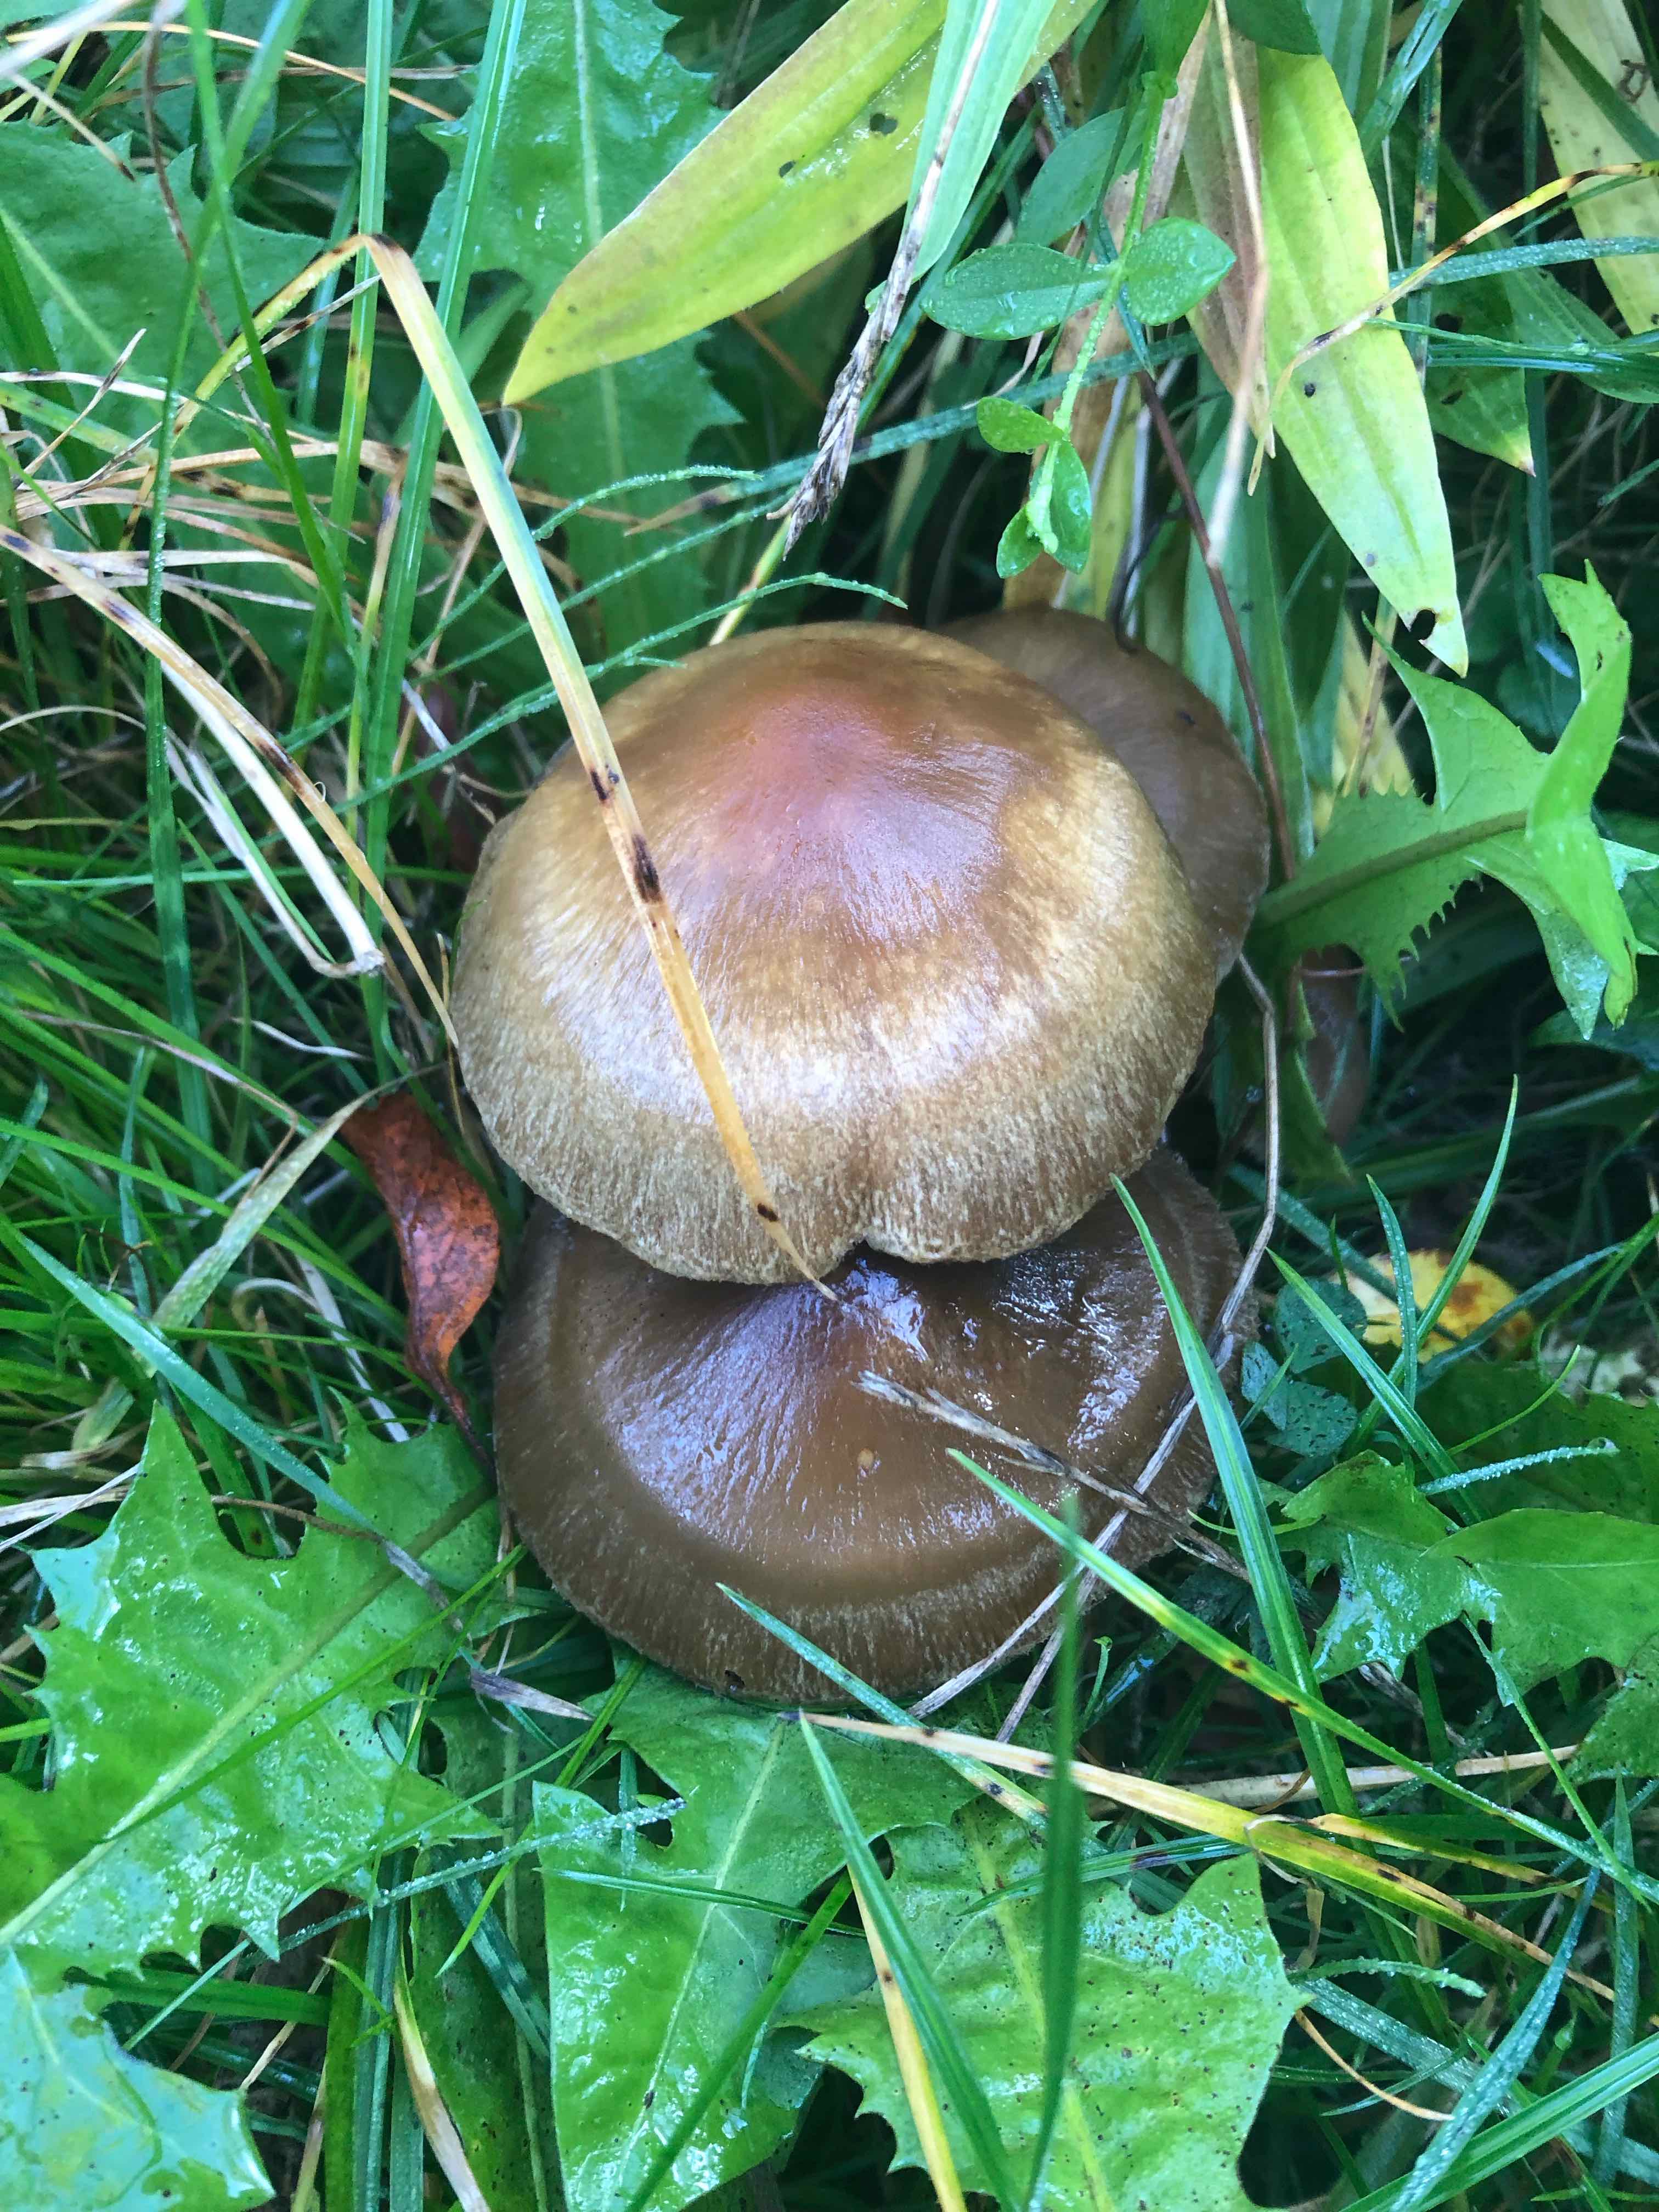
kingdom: Fungi
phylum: Basidiomycota
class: Agaricomycetes
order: Agaricales
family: Psathyrellaceae
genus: Lacrymaria
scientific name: Lacrymaria lacrymabunda
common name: grædende mørkhat
